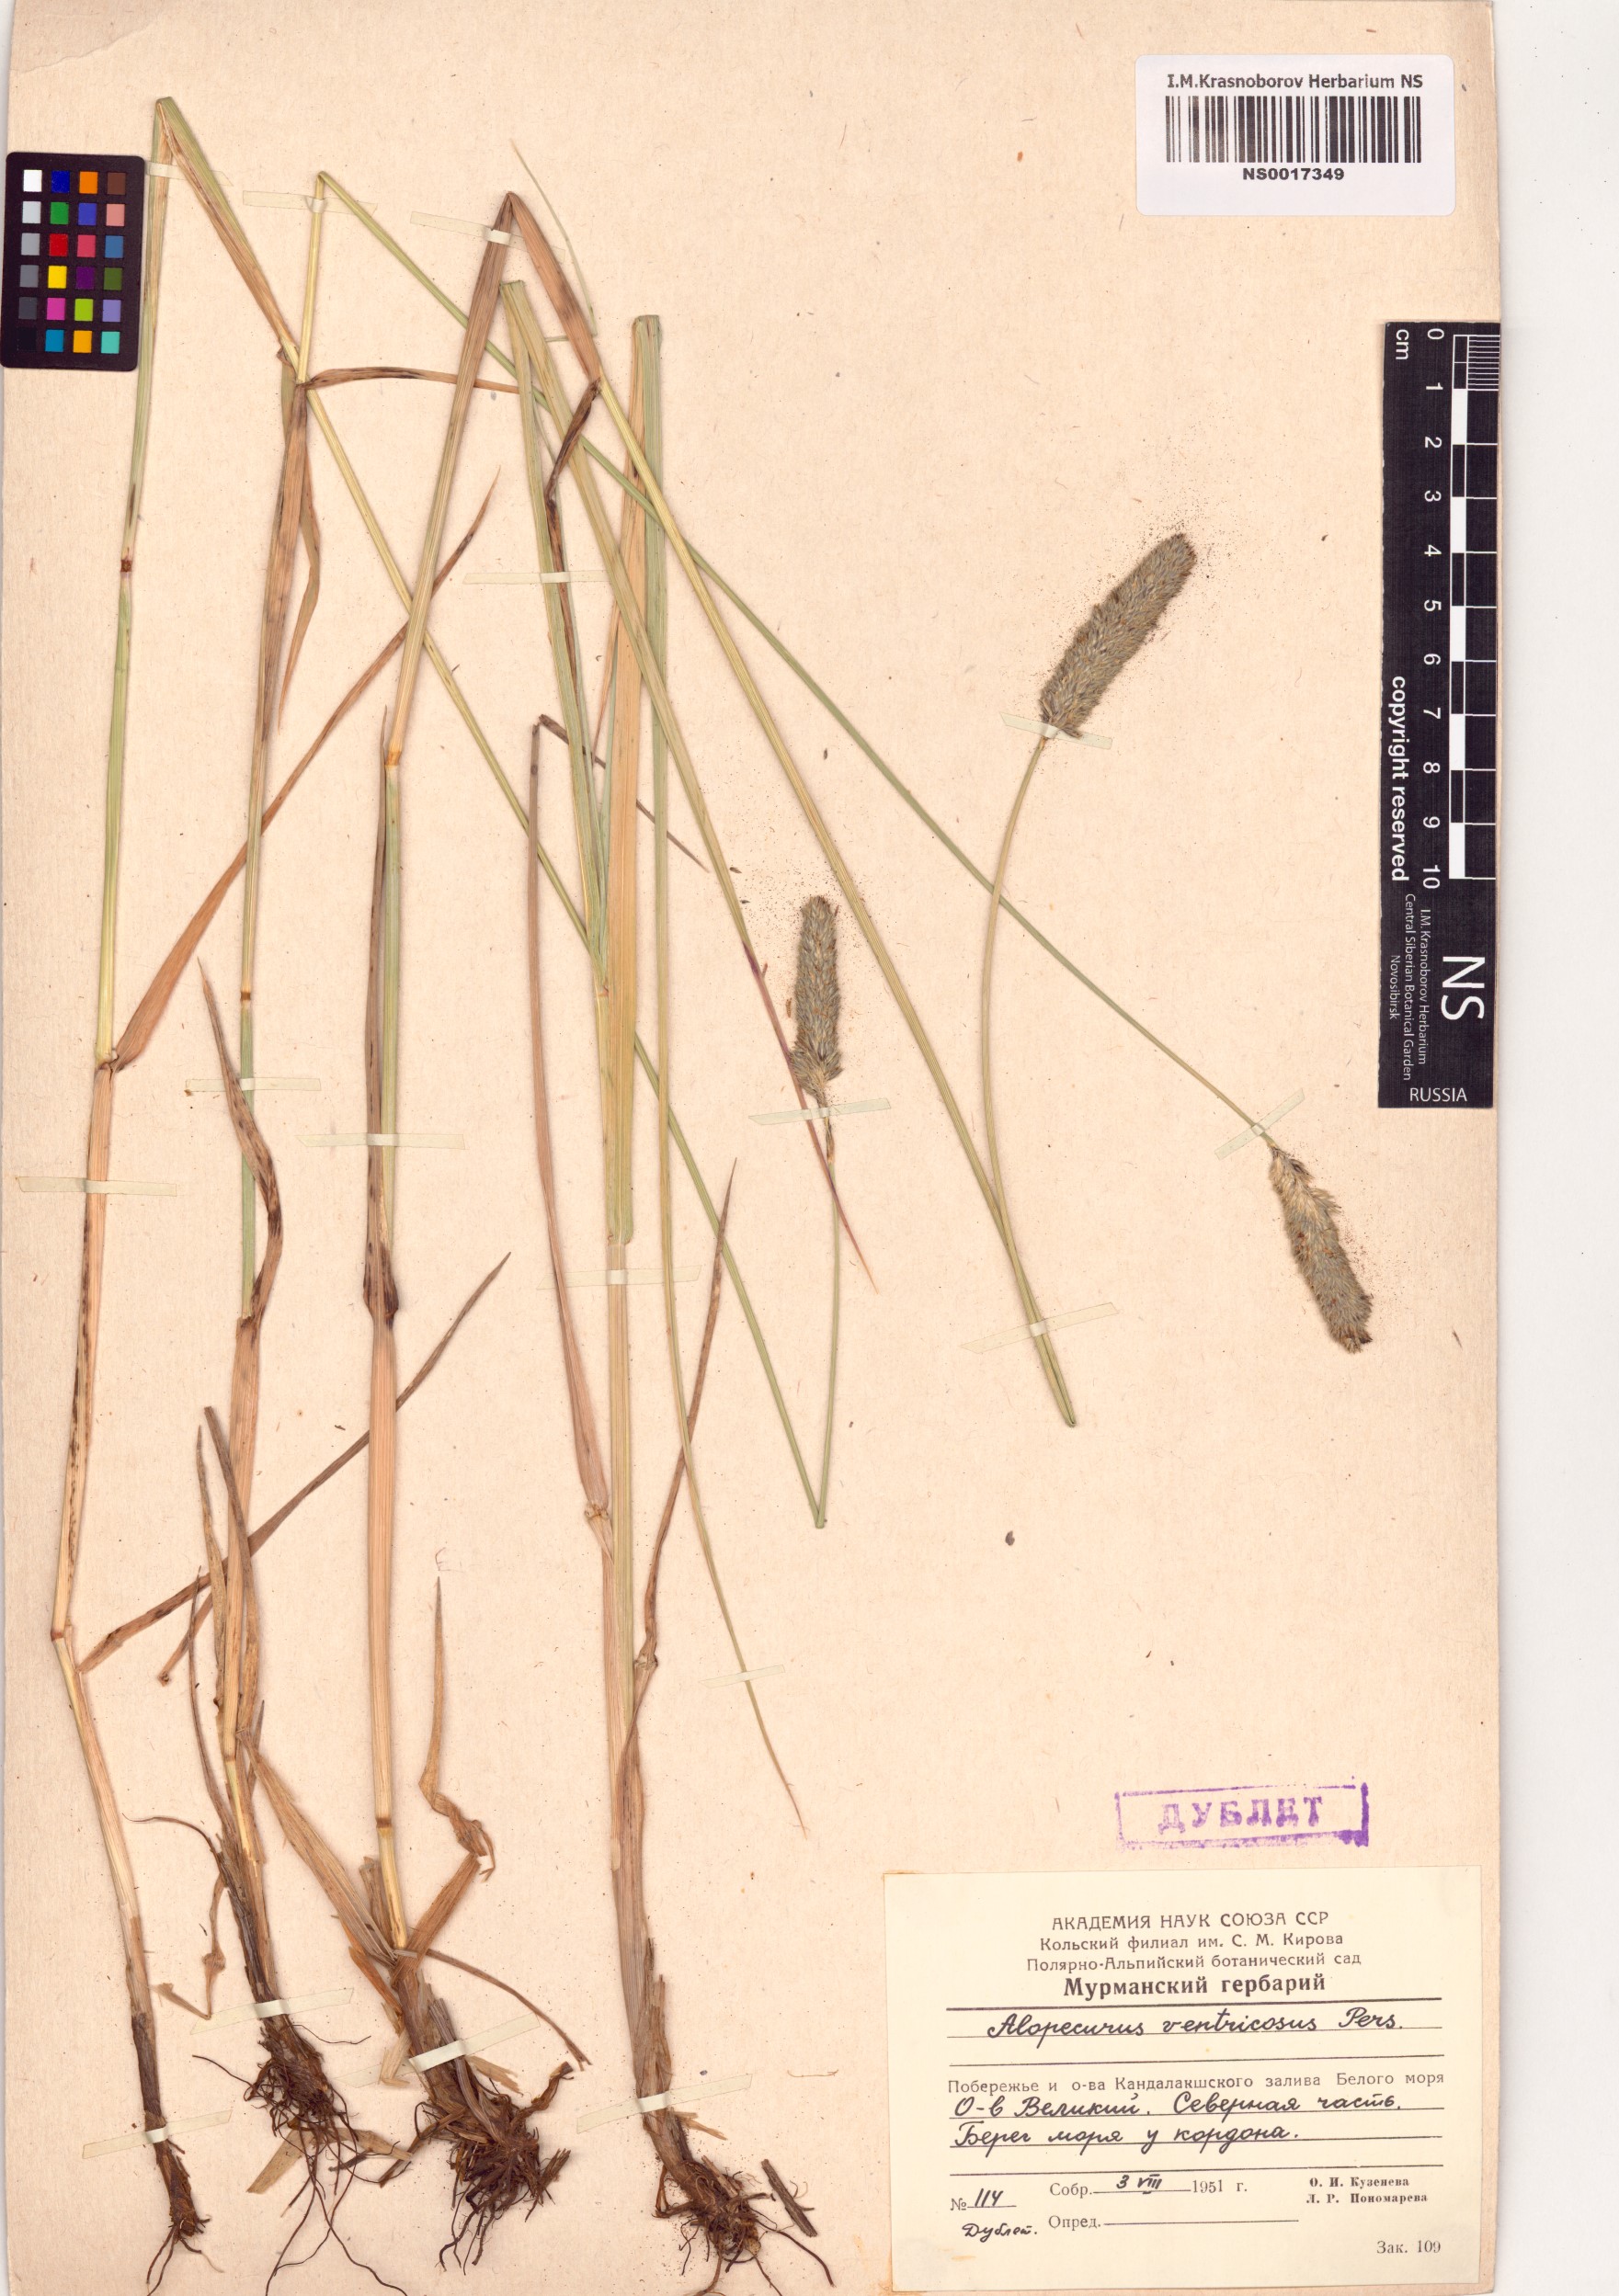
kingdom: Plantae
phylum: Tracheophyta
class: Liliopsida
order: Poales
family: Poaceae
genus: Alopecurus
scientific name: Alopecurus arundinaceus
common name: Creeping meadow foxtail
